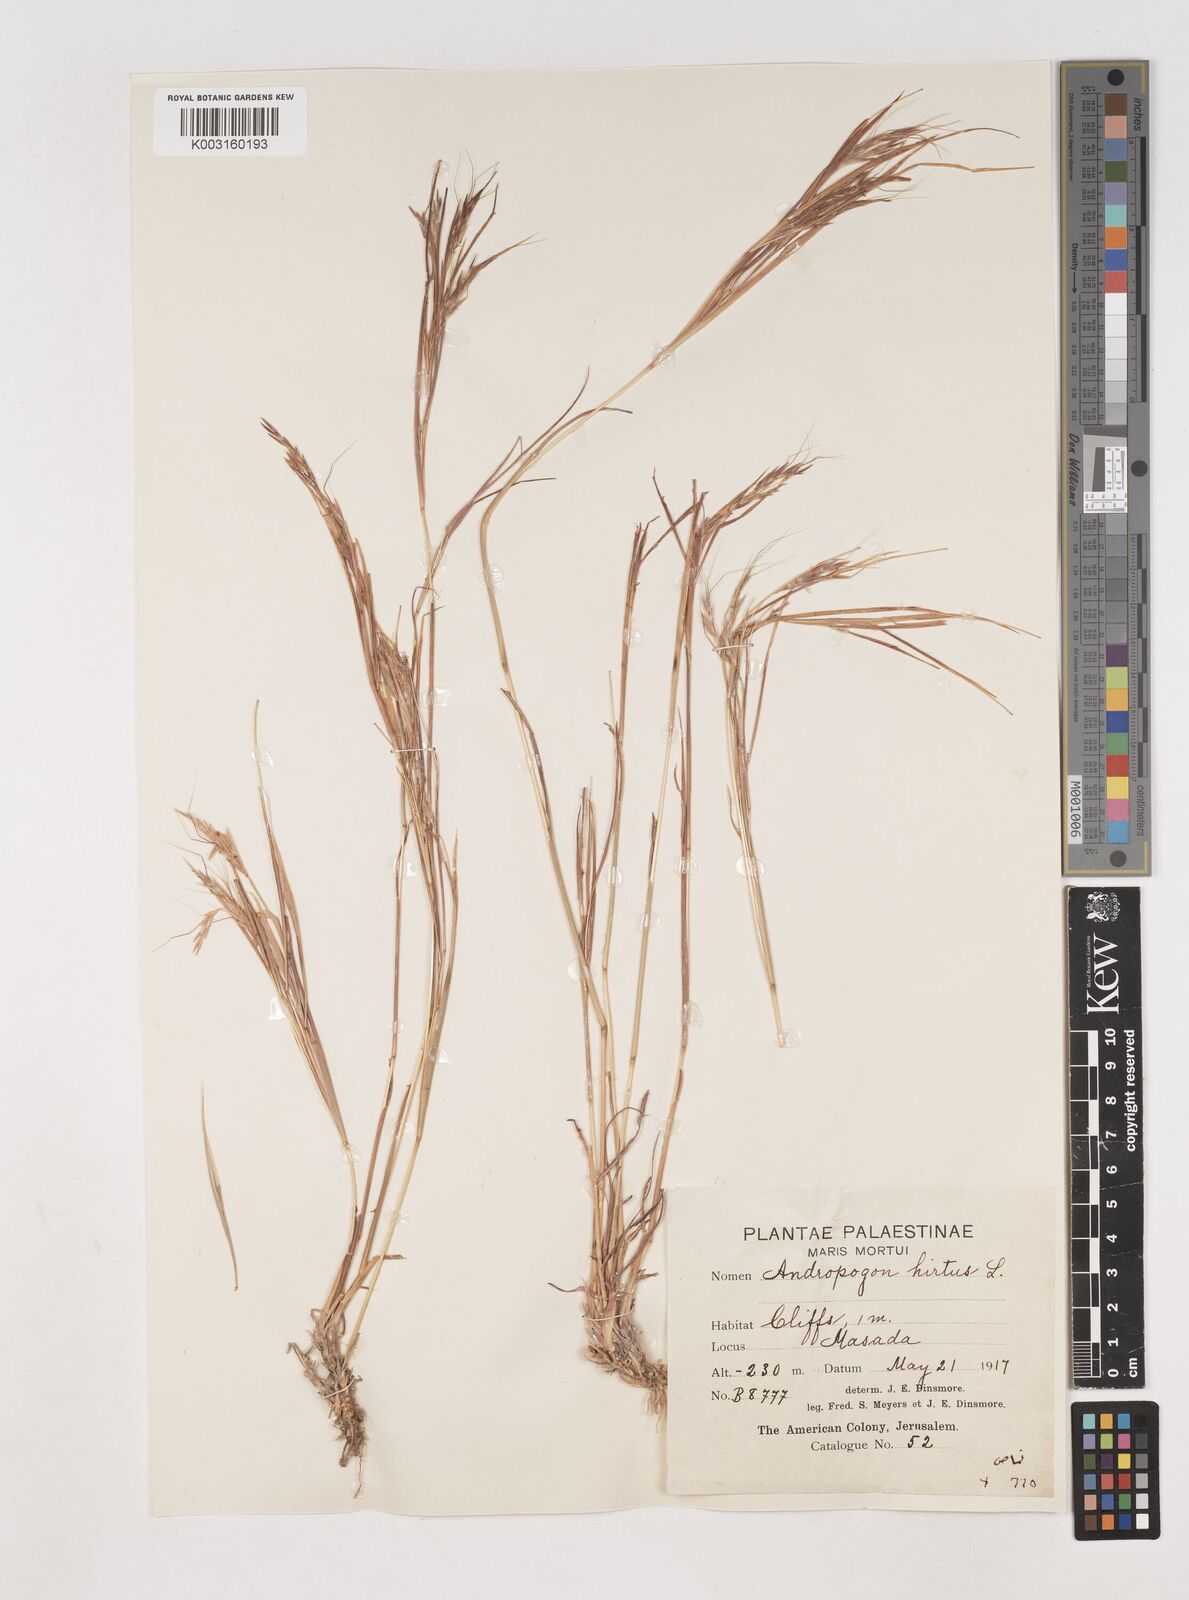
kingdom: Plantae
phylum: Tracheophyta
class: Liliopsida
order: Poales
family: Poaceae
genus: Hyparrhenia
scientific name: Hyparrhenia hirta
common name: Thatching grass
